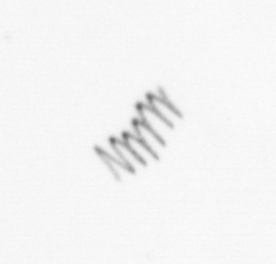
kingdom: Chromista
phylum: Ochrophyta
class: Bacillariophyceae
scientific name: Bacillariophyceae
